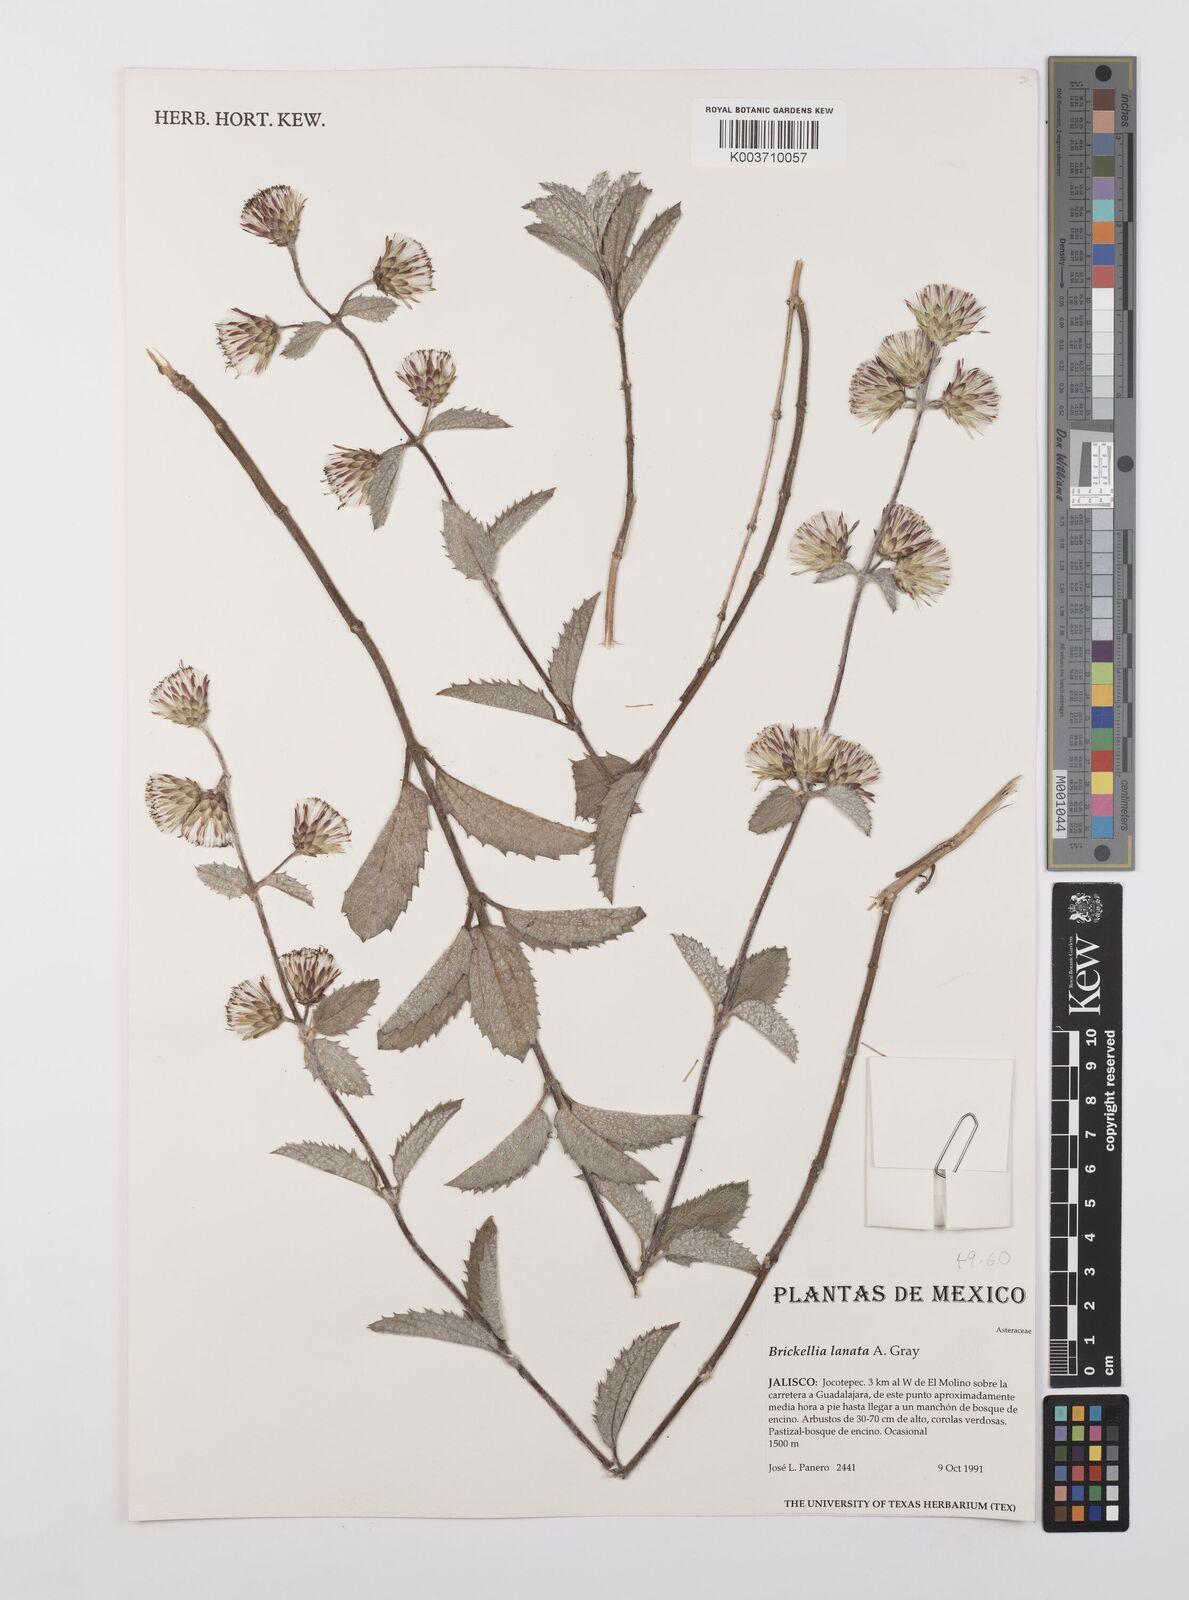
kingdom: Plantae
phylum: Tracheophyta
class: Magnoliopsida
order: Asterales
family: Asteraceae
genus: Brickellia
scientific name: Brickellia lanata
